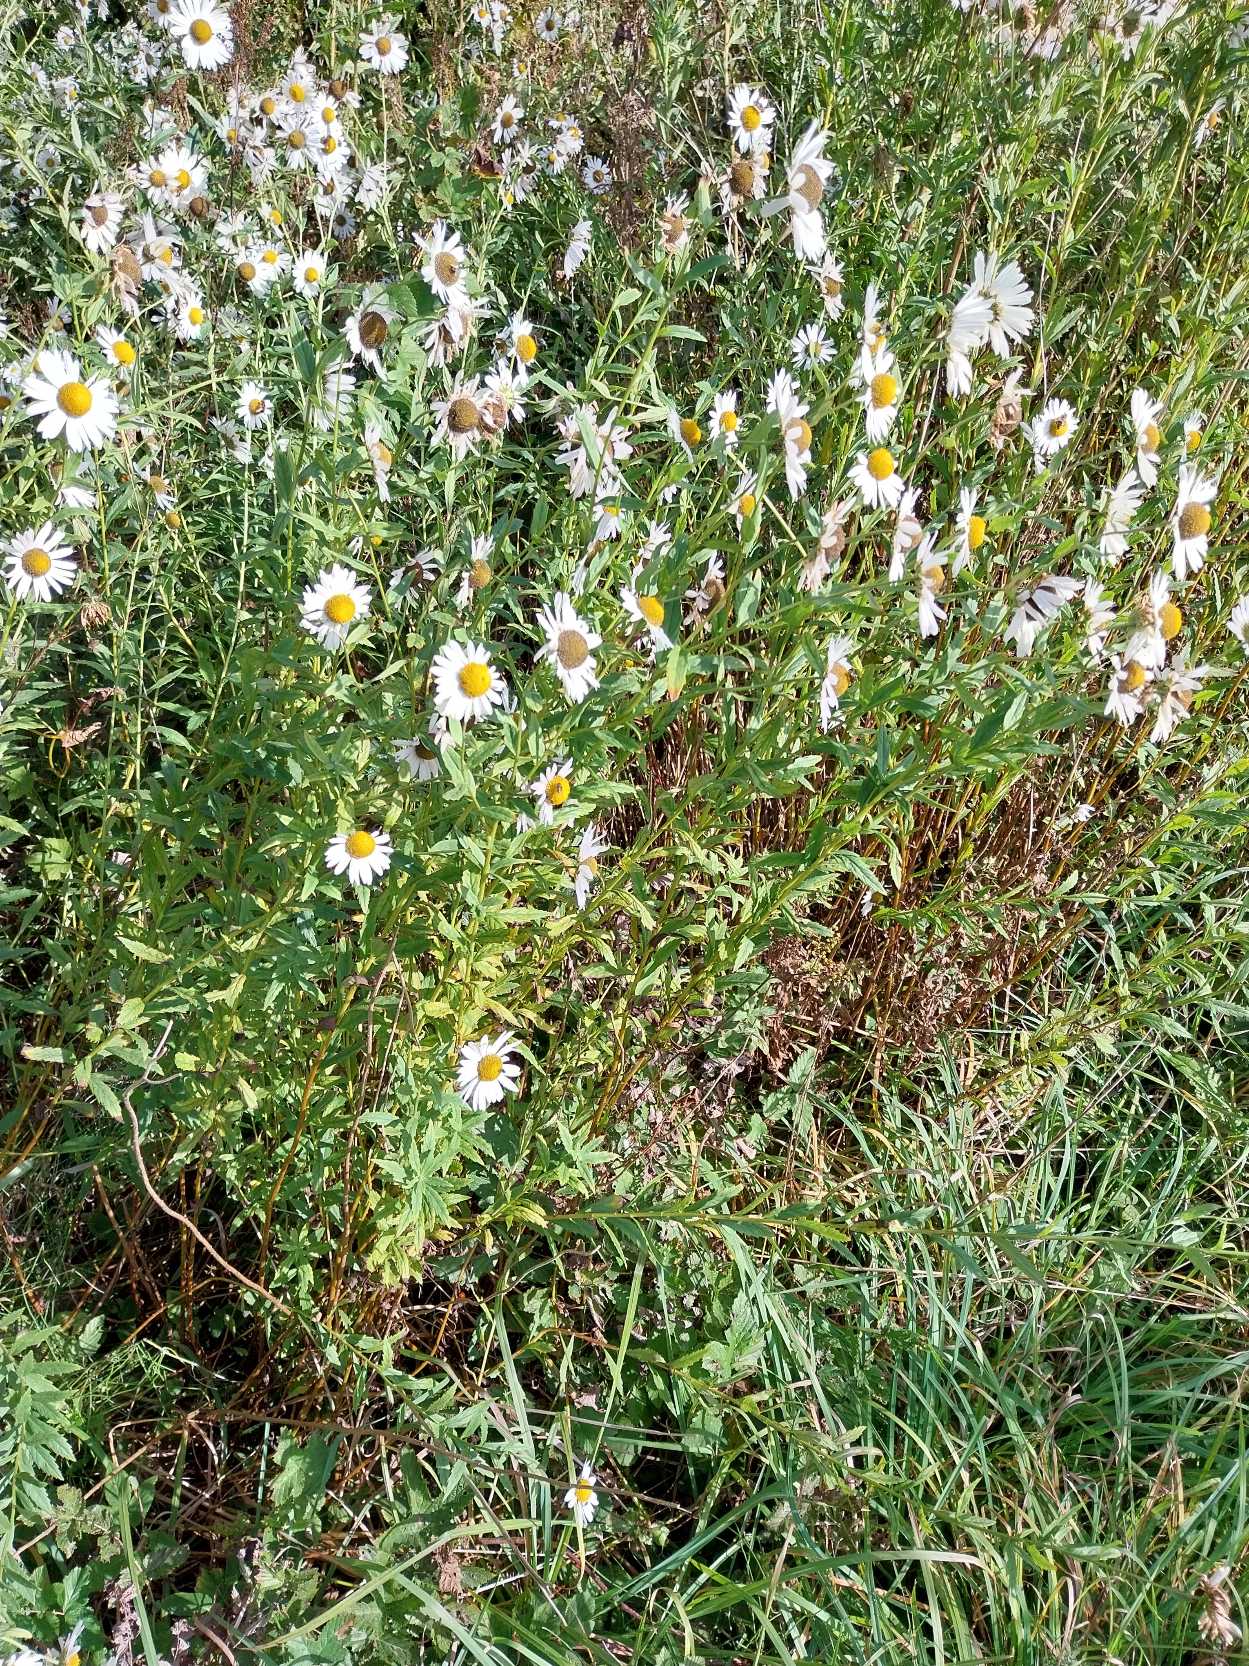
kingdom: Plantae
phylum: Tracheophyta
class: Magnoliopsida
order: Asterales
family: Asteraceae
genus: Leucanthemella
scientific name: Leucanthemella serotina
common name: Oktober-margerit
